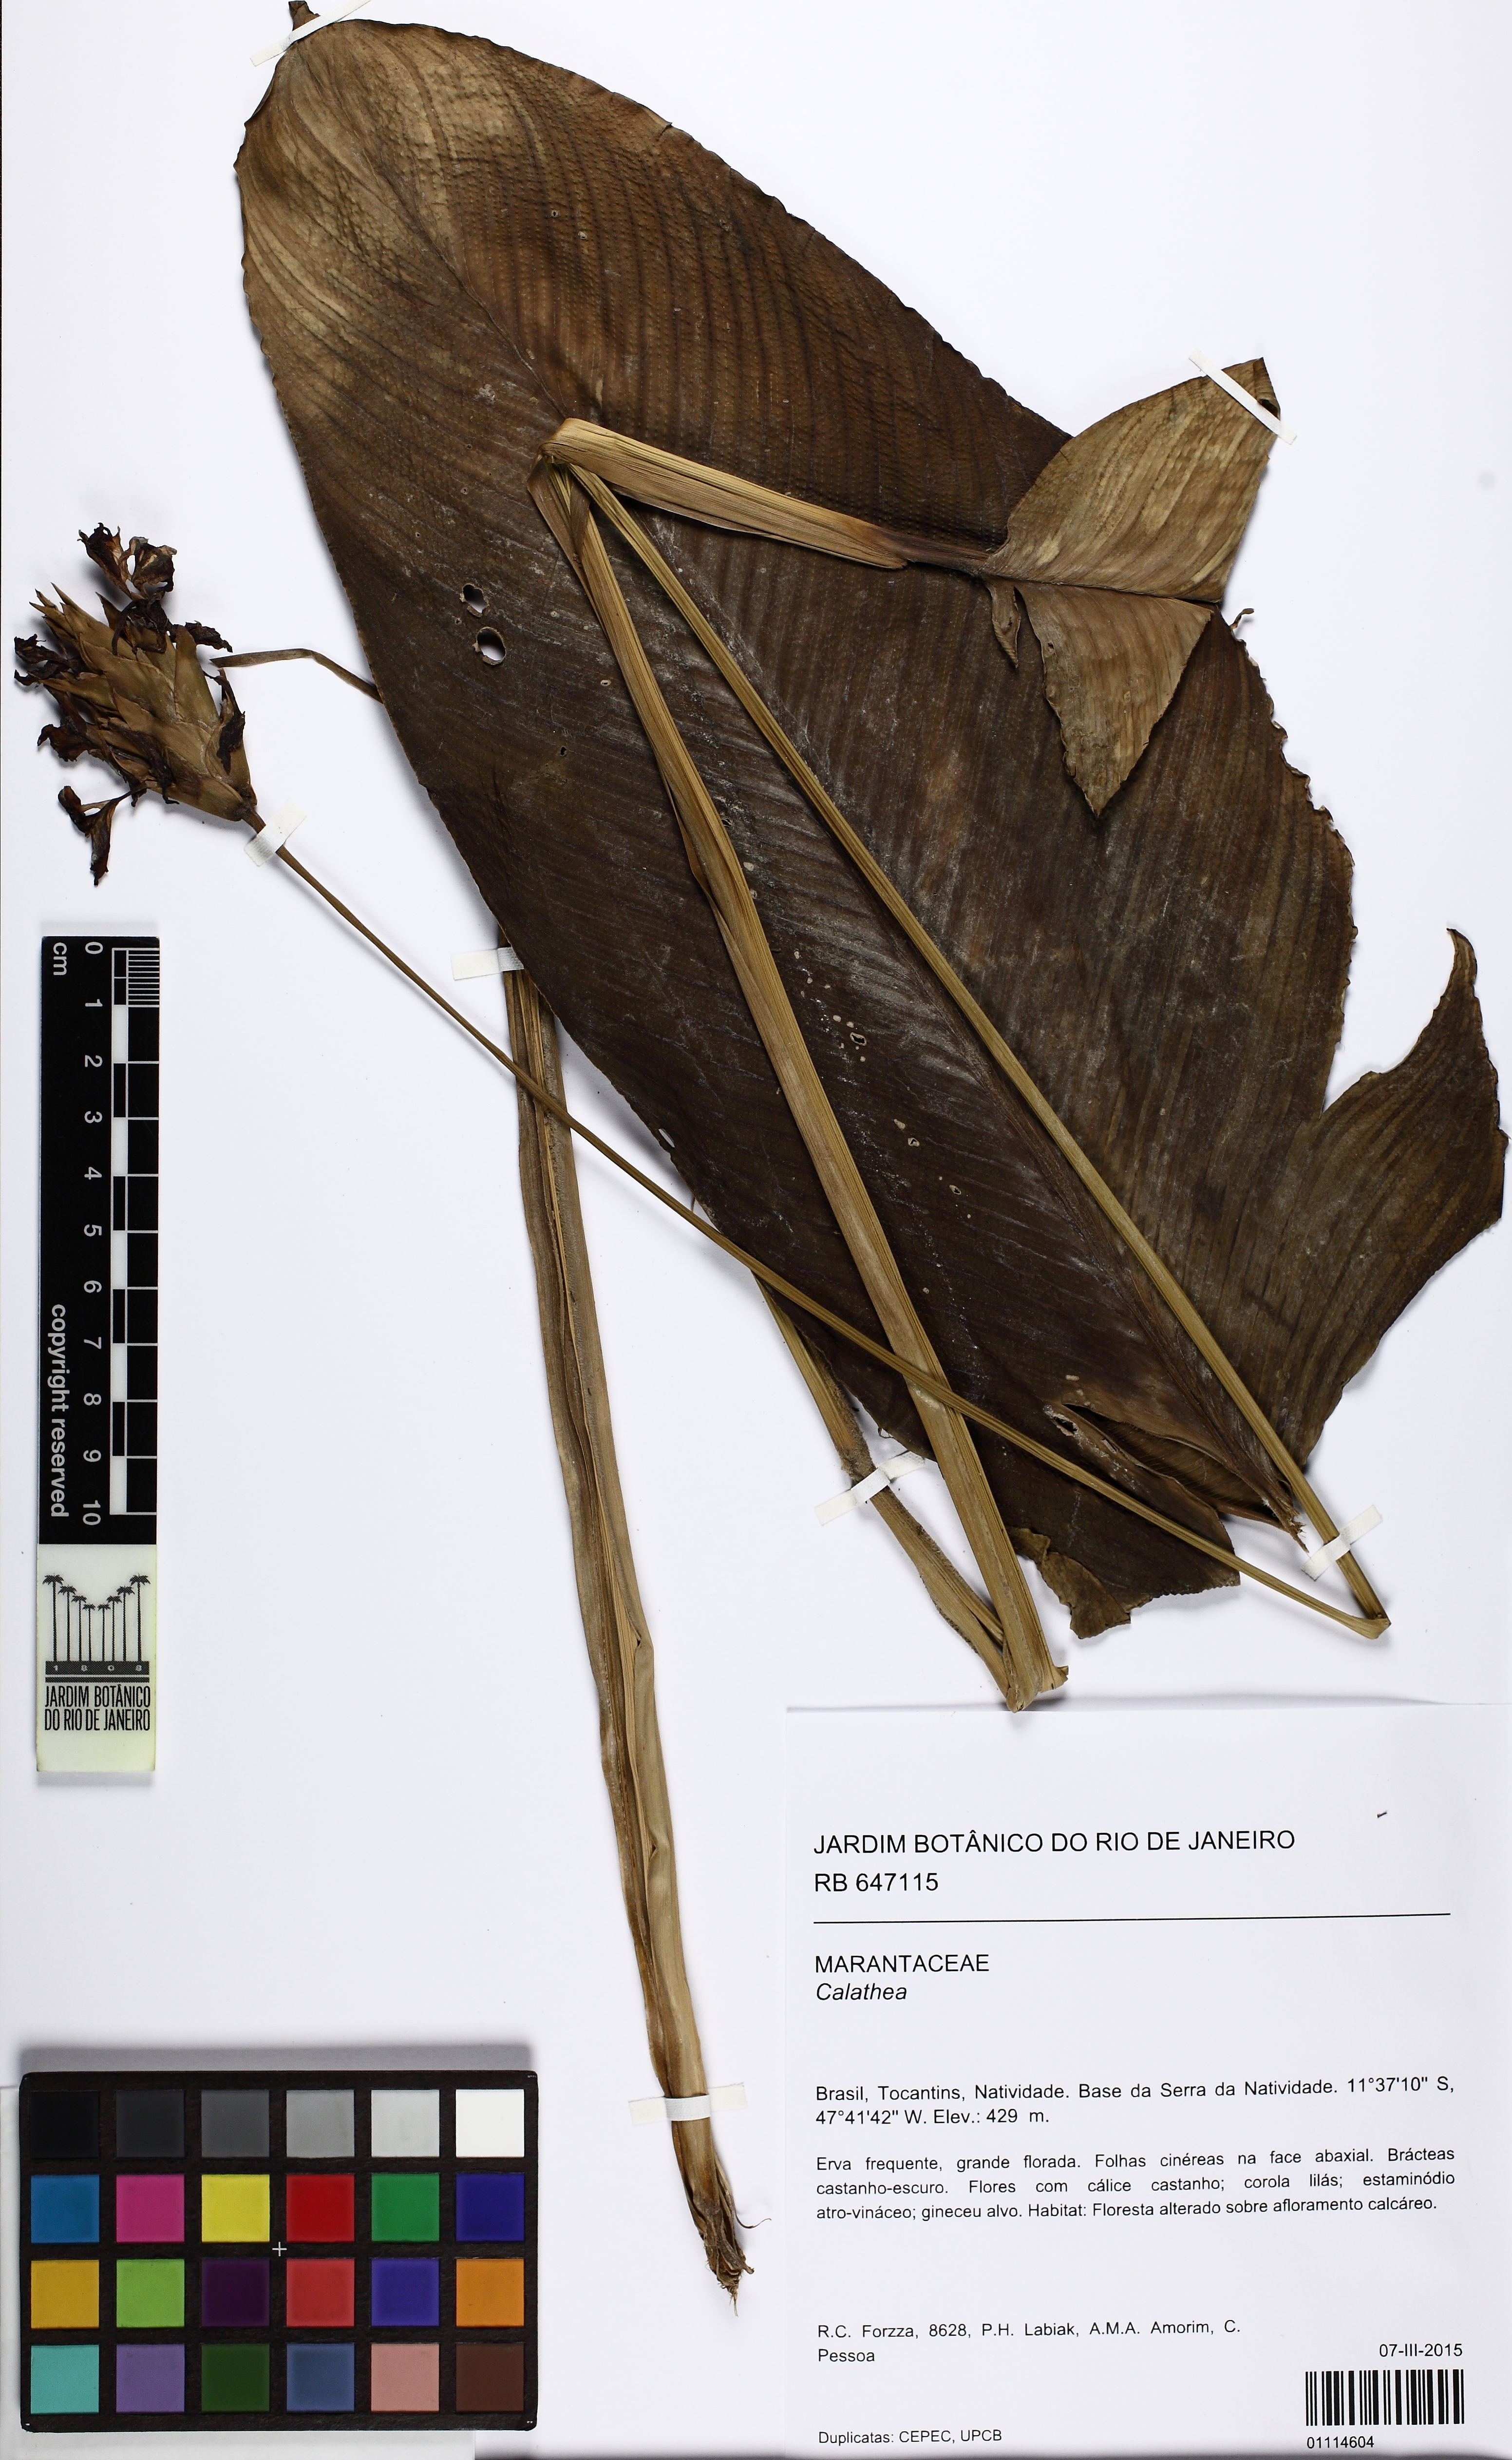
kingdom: Plantae
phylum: Tracheophyta
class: Liliopsida
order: Zingiberales
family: Marantaceae
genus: Calathea
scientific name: Calathea
